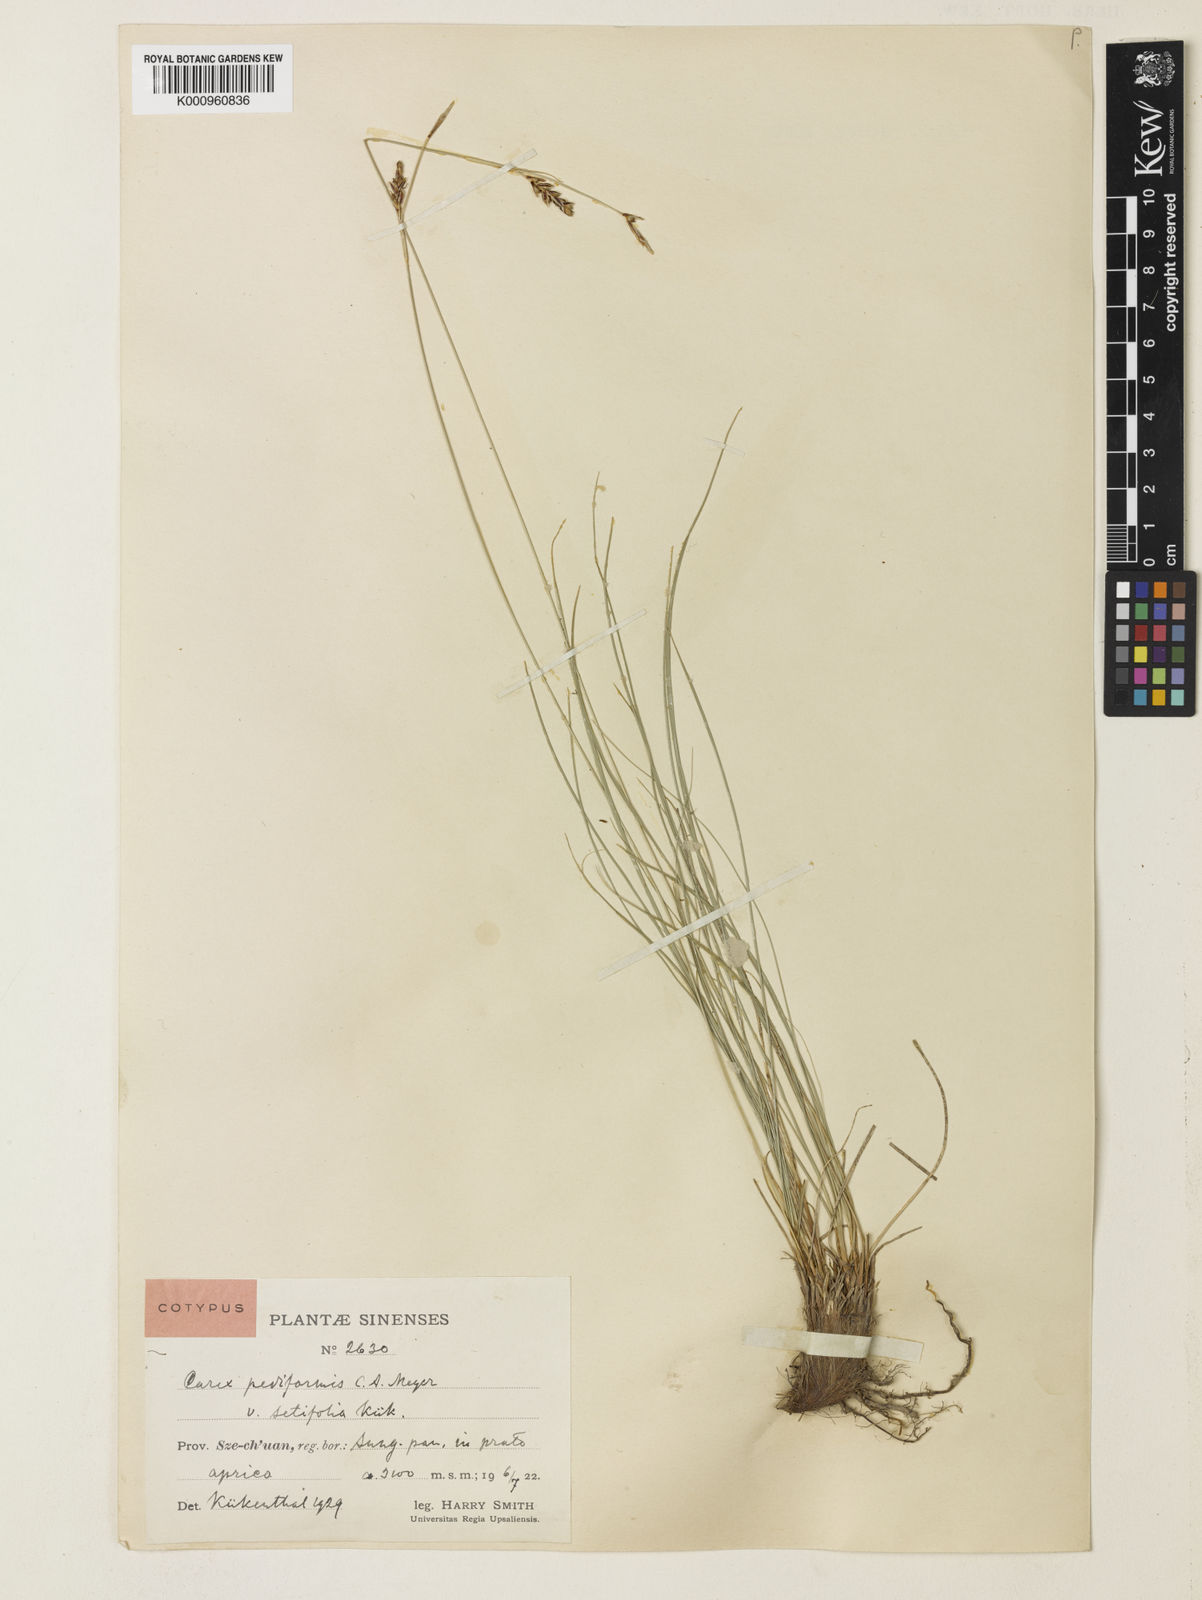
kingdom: Plantae
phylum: Tracheophyta
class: Liliopsida
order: Poales
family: Cyperaceae
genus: Carex
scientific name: Carex pediformis
